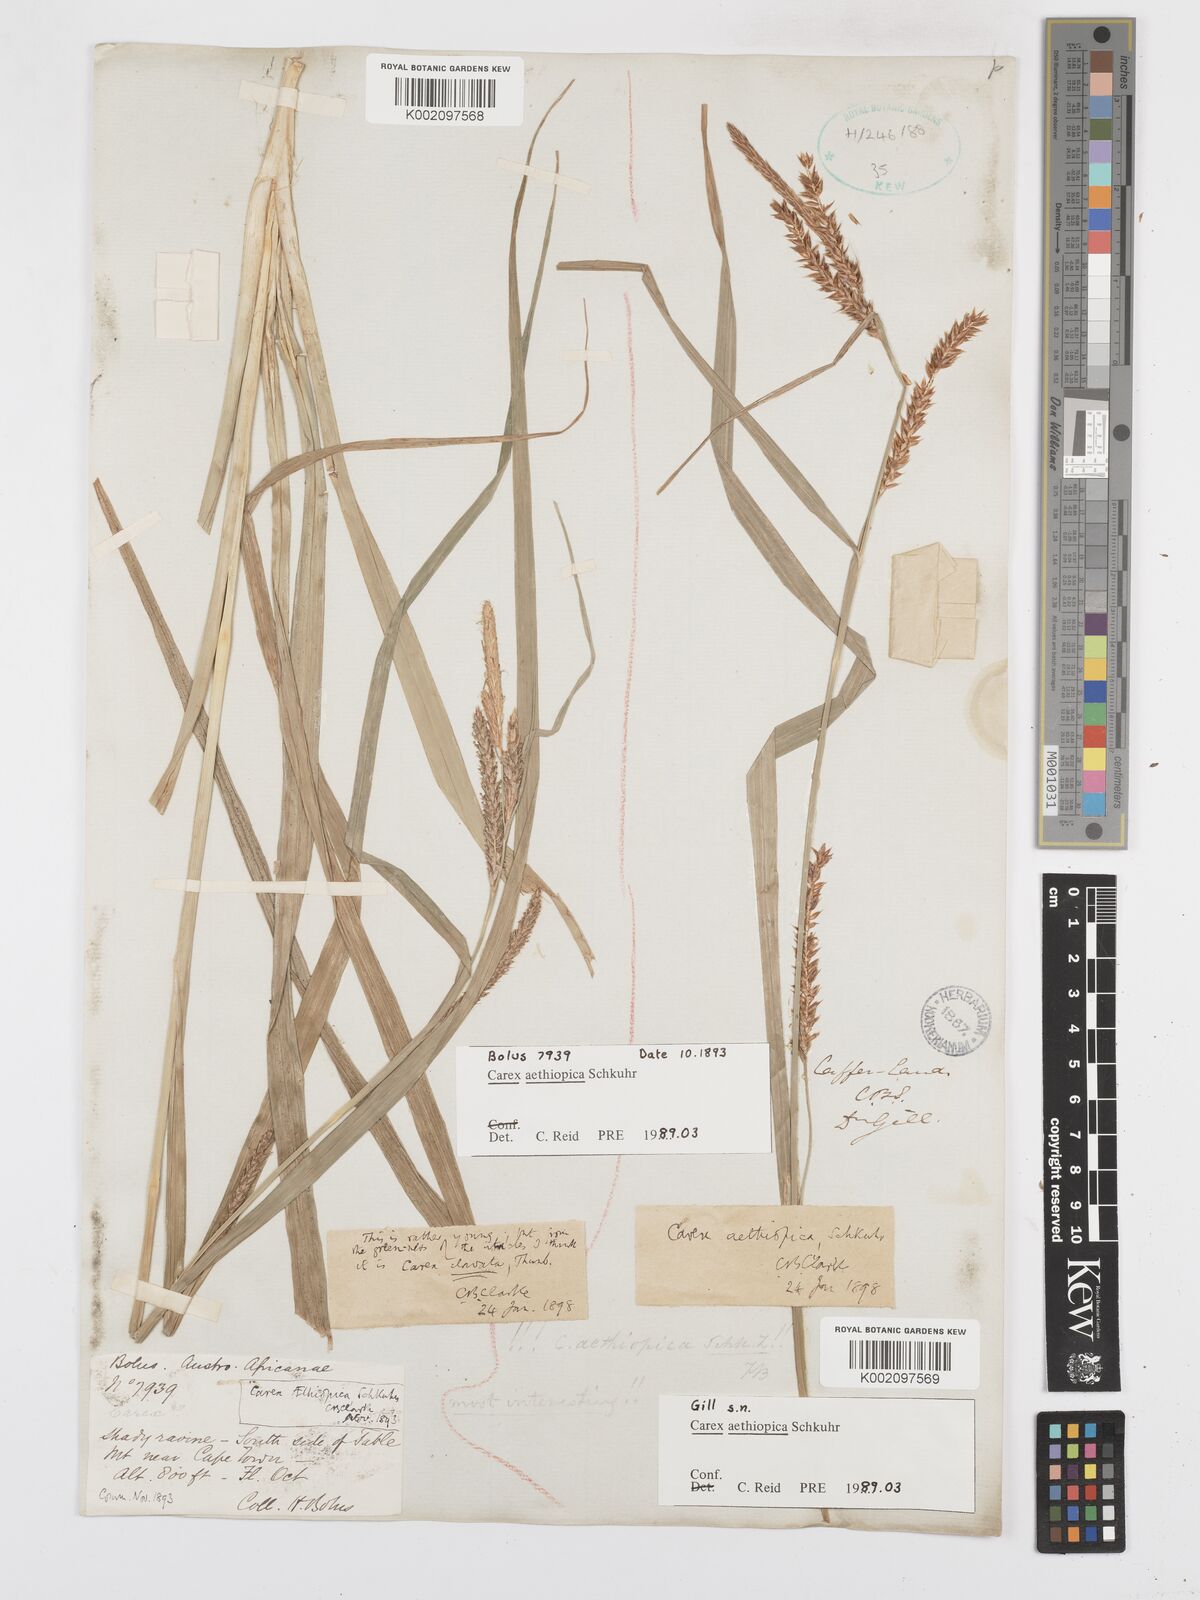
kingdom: Plantae
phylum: Tracheophyta
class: Liliopsida
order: Poales
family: Cyperaceae
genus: Carex
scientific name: Carex aethiopica
